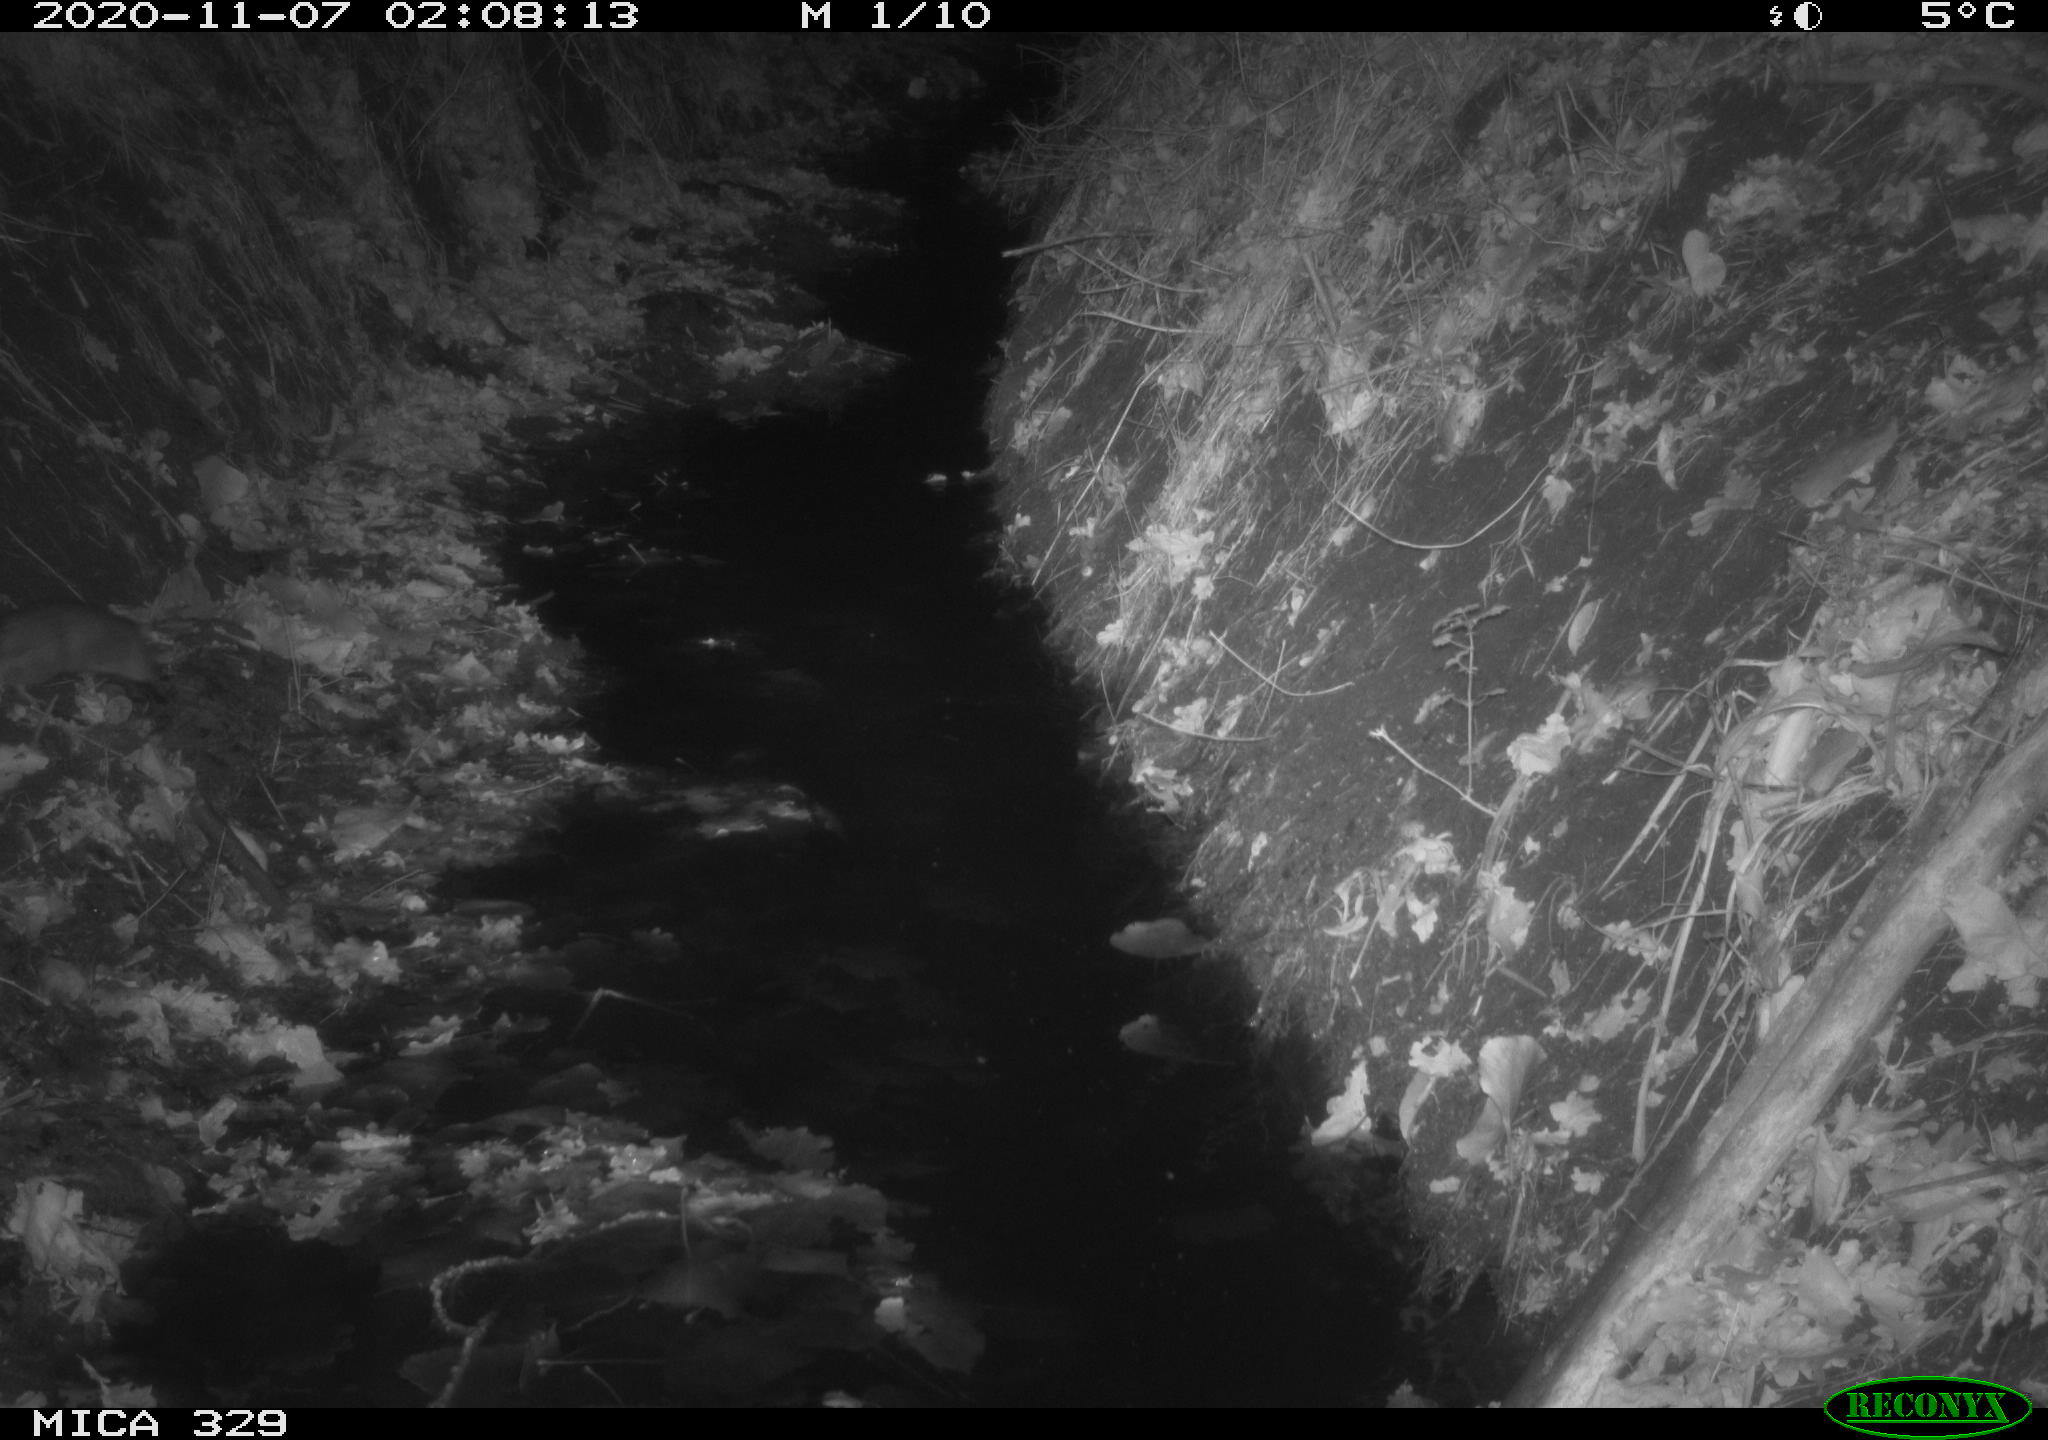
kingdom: Animalia
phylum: Chordata
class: Mammalia
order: Rodentia
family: Muridae
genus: Rattus
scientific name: Rattus norvegicus
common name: Brown rat
